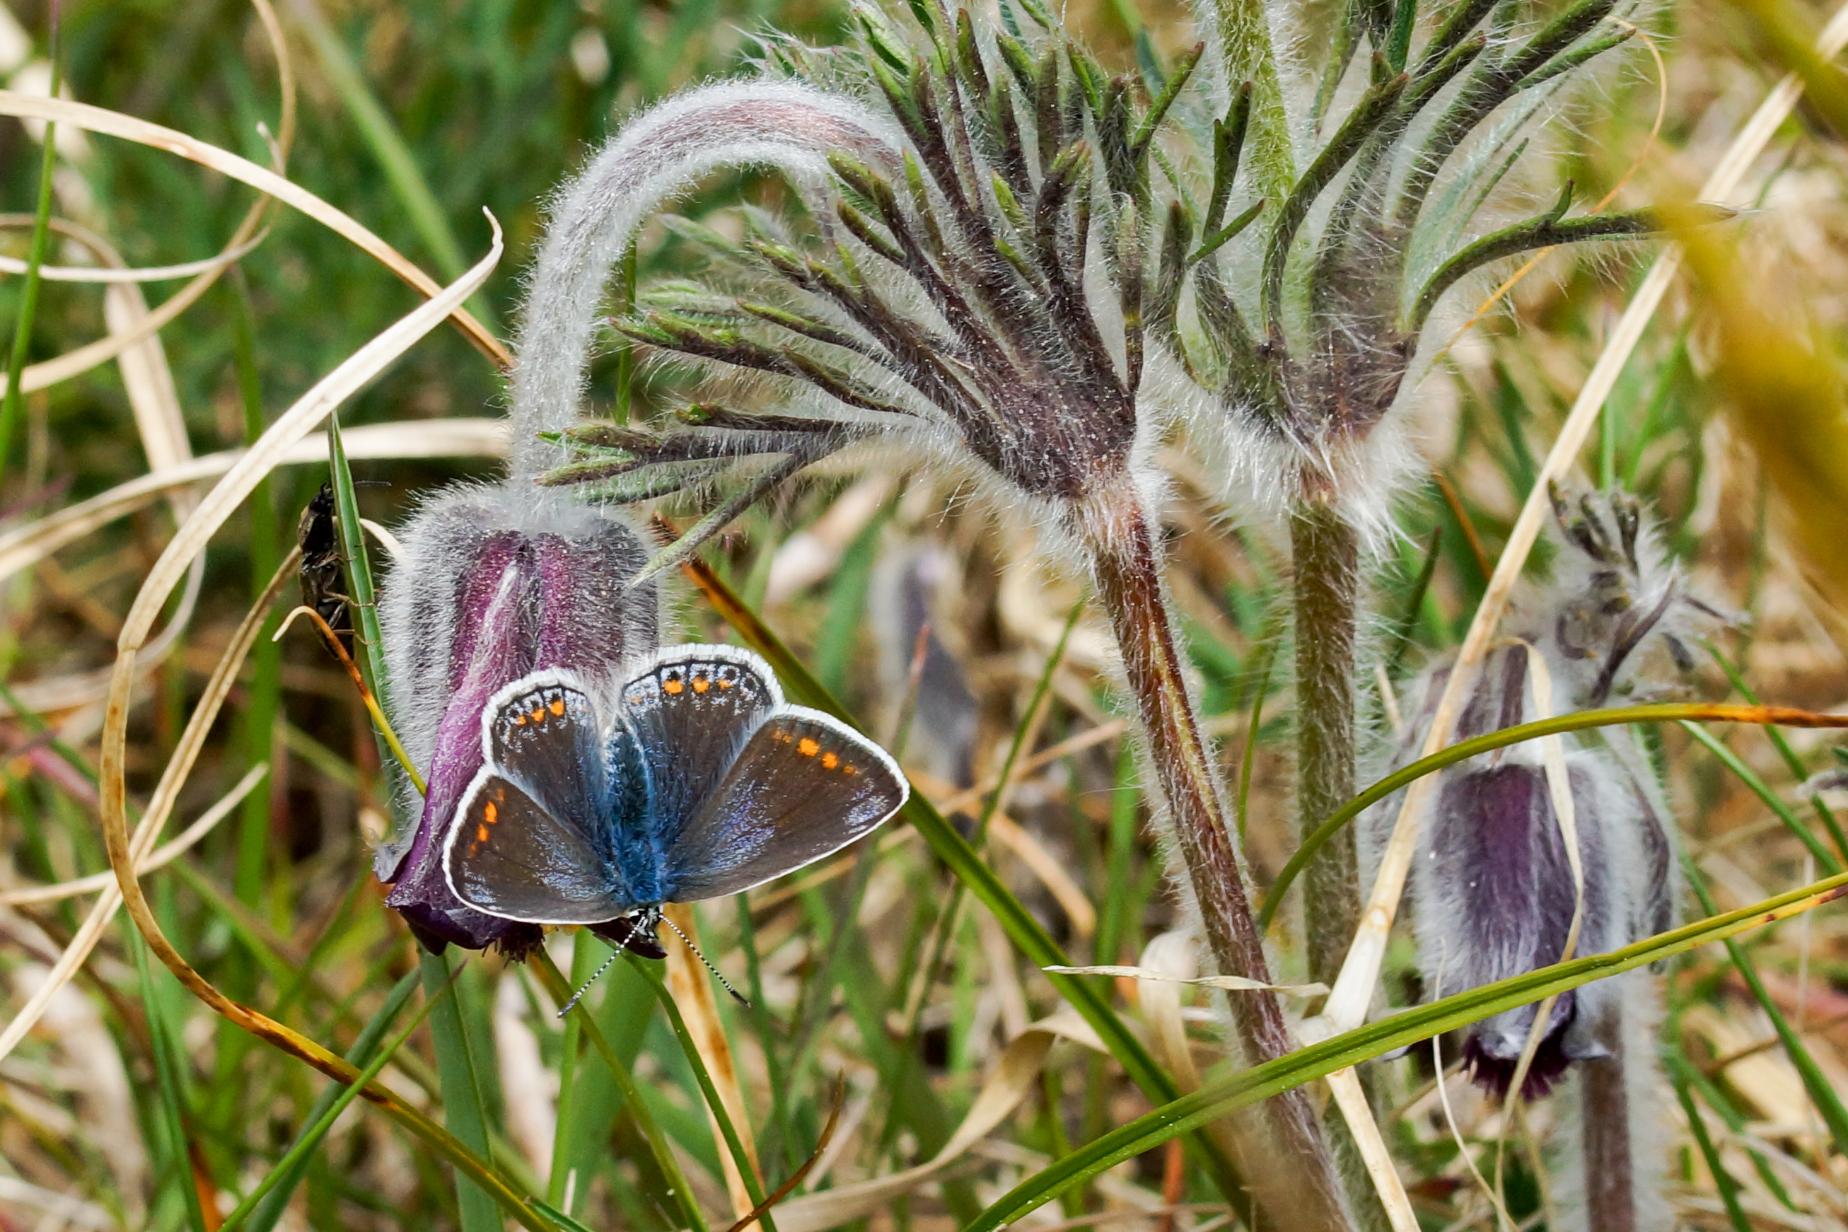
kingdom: Animalia
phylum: Arthropoda
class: Insecta
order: Lepidoptera
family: Lycaenidae
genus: Polyommatus
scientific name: Polyommatus icarus
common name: Almindelig blåfugl
